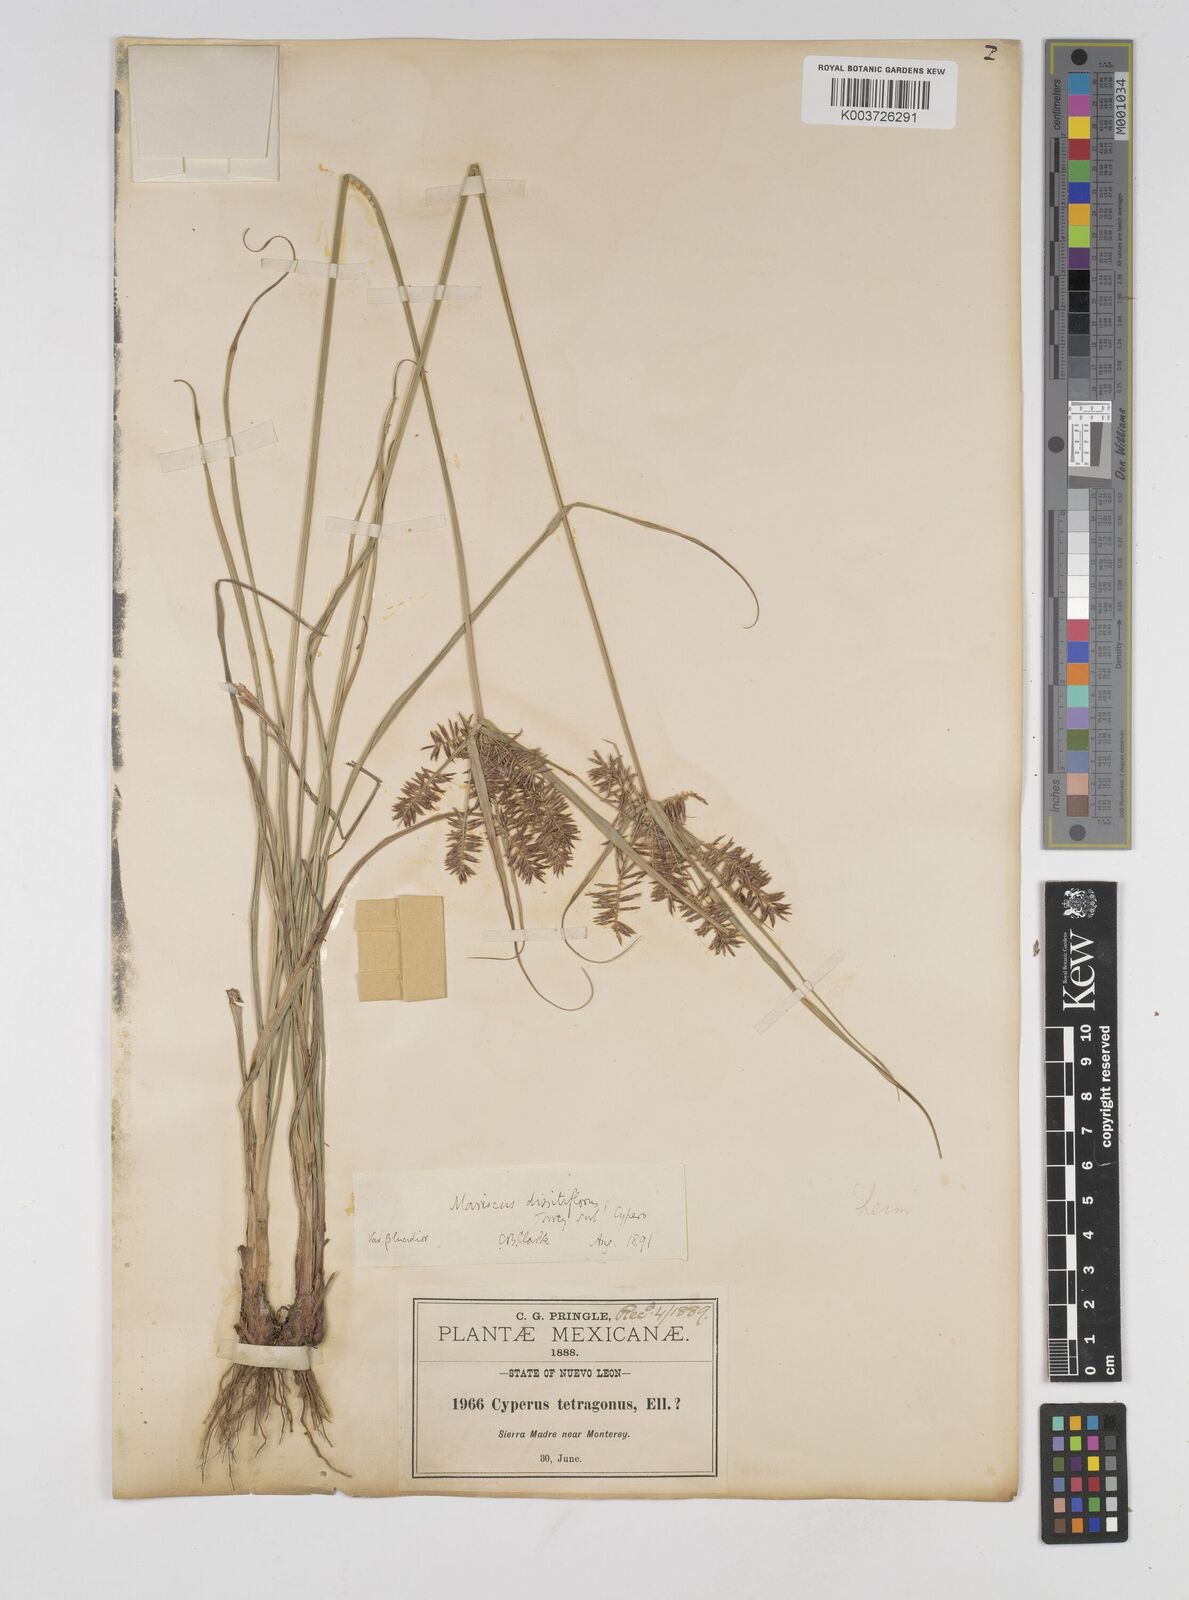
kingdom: Plantae
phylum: Tracheophyta
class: Liliopsida
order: Poales
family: Cyperaceae
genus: Cyperus
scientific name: Cyperus thyrsiflorus
